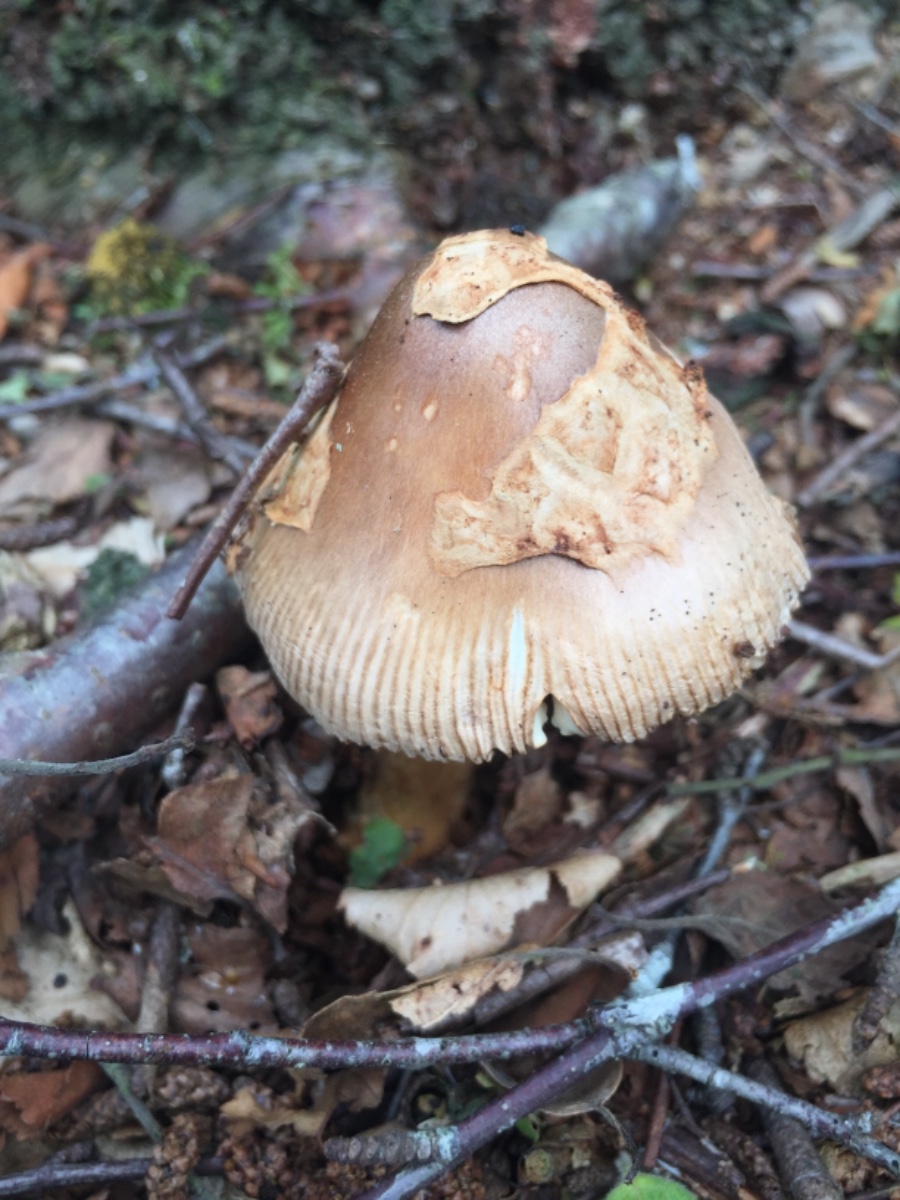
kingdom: Fungi
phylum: Basidiomycota
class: Agaricomycetes
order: Agaricales
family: Amanitaceae
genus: Amanita
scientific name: Amanita fulva
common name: brun kam-fluesvamp
